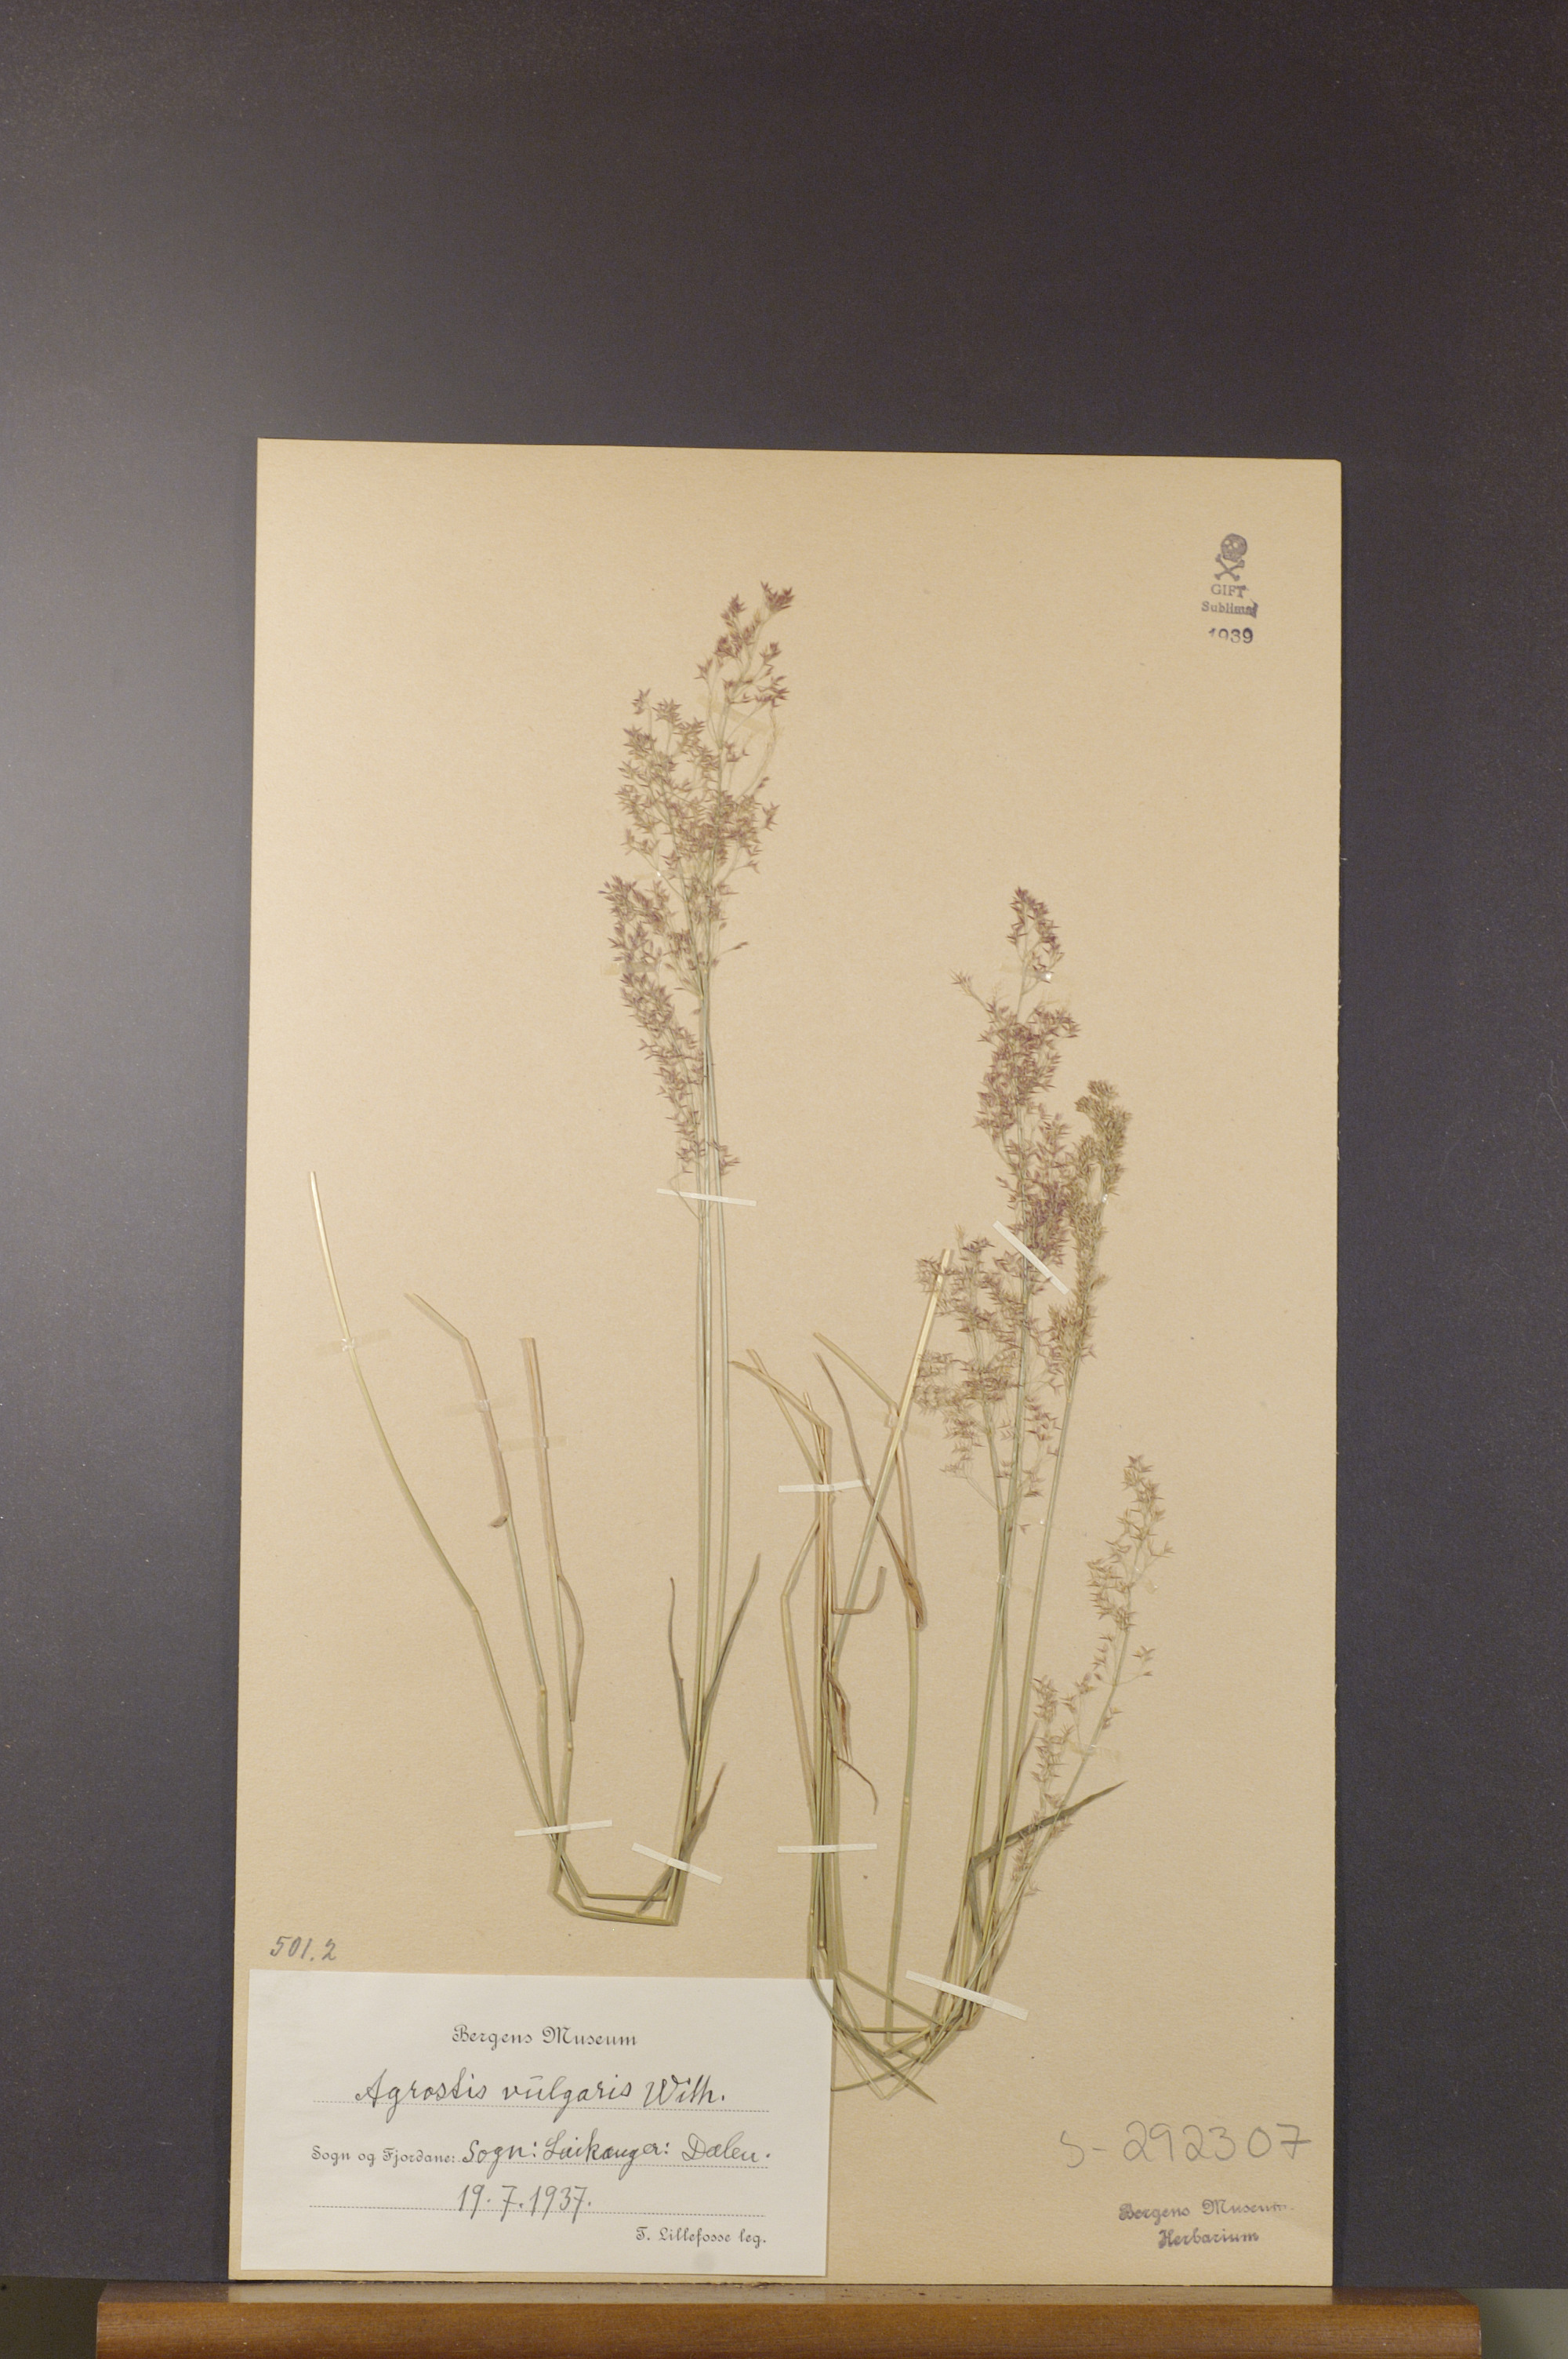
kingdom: Plantae
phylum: Tracheophyta
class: Liliopsida
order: Poales
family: Poaceae
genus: Agrostis
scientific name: Agrostis capillaris
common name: Colonial bentgrass
